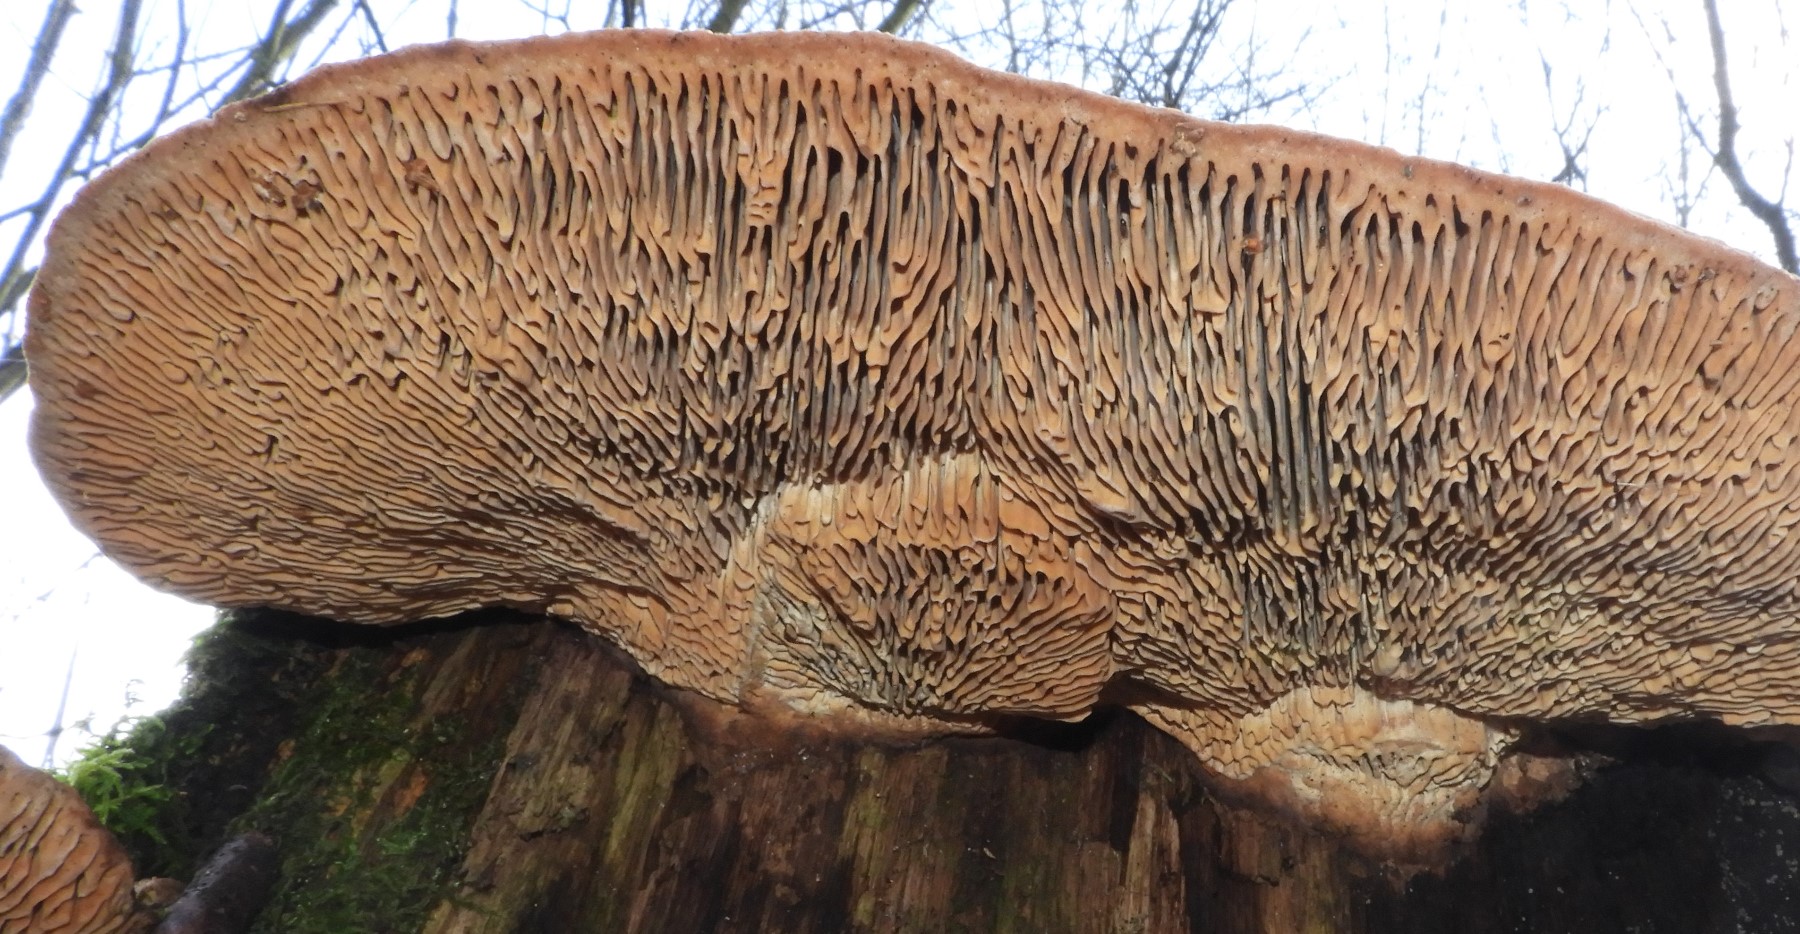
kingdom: Fungi
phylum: Basidiomycota
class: Agaricomycetes
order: Polyporales
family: Fomitopsidaceae
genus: Daedalea
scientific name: Daedalea quercina
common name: ege-labyrintsvamp
